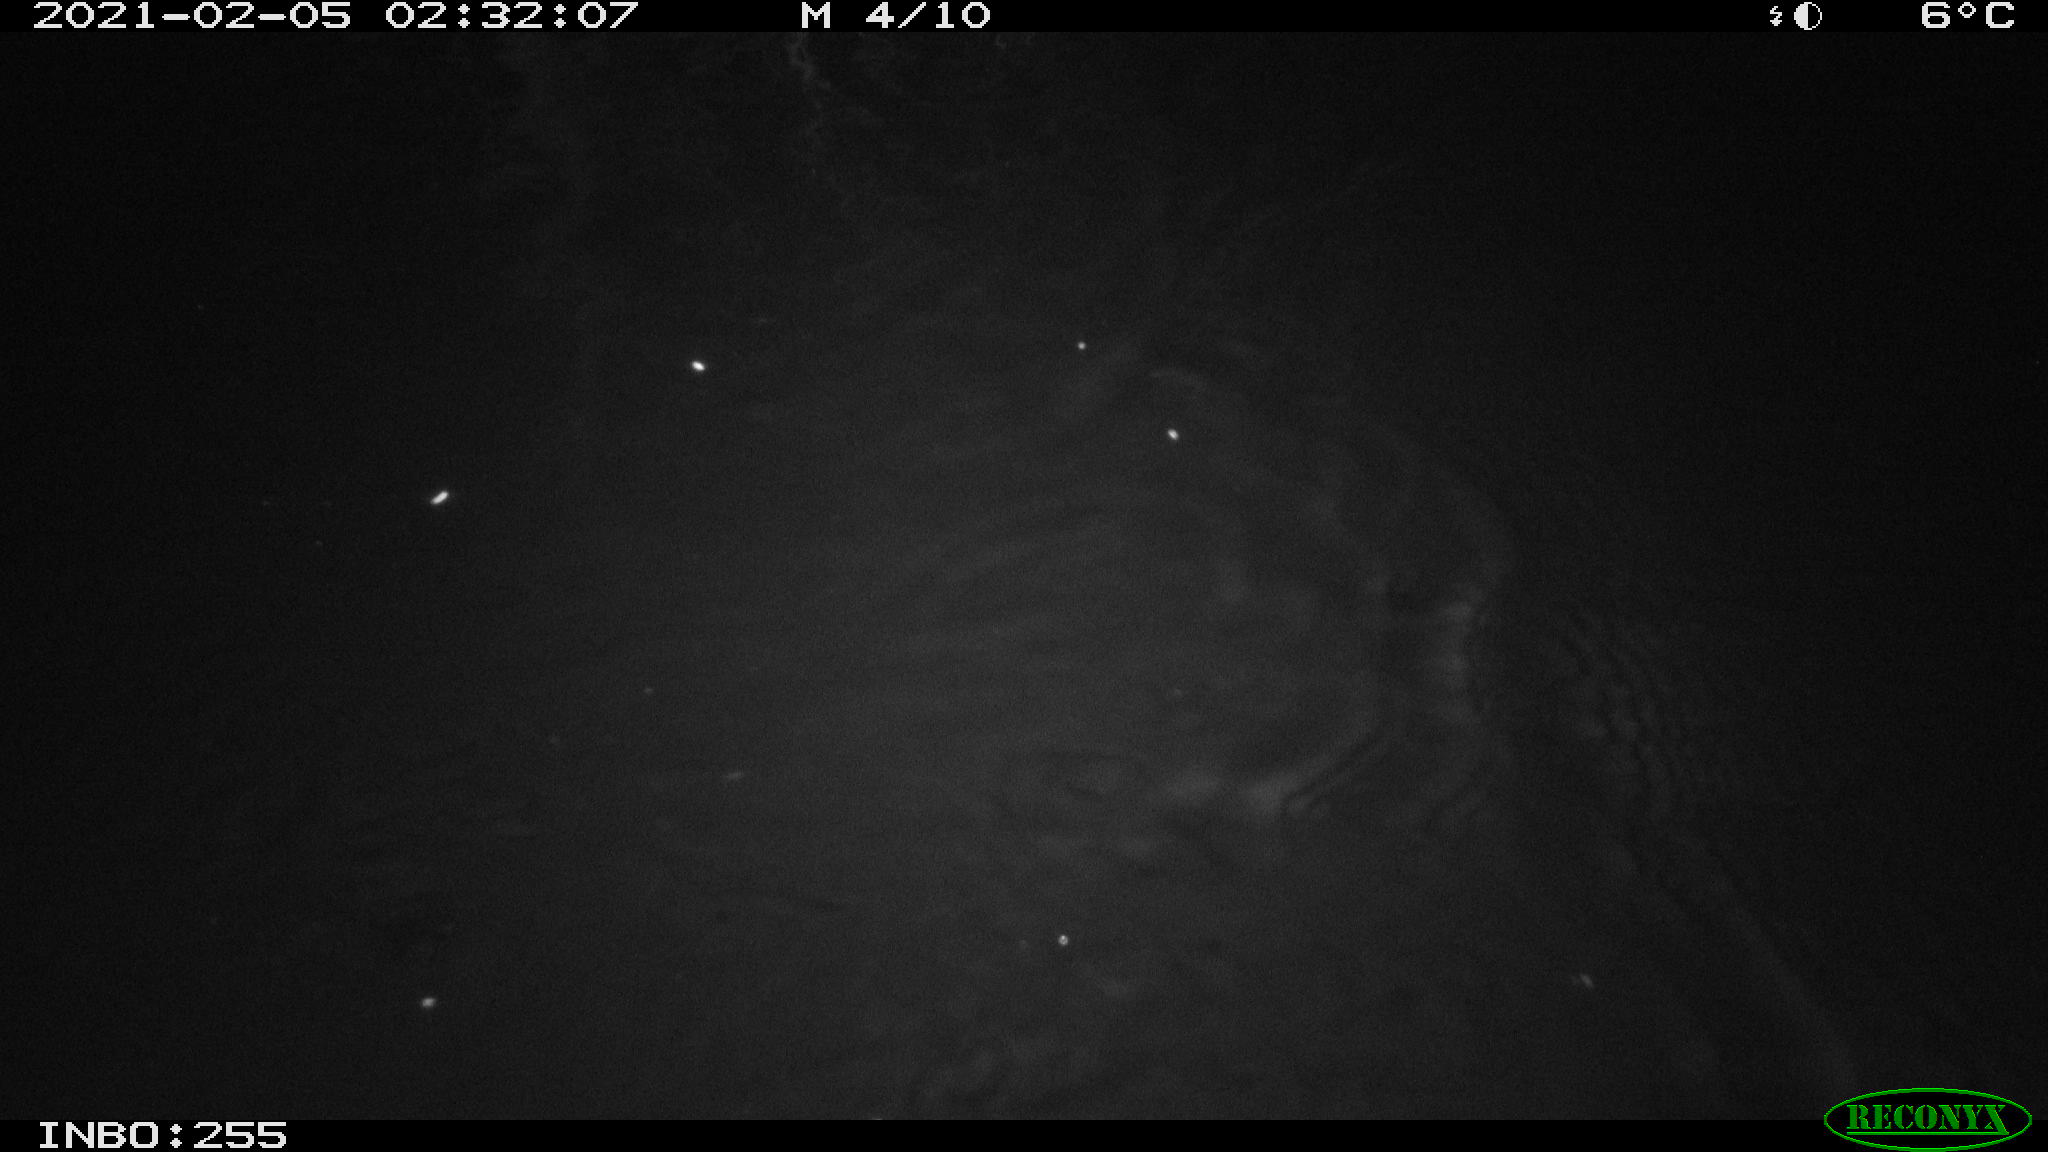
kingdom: Animalia
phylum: Chordata
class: Mammalia
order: Rodentia
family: Cricetidae
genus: Ondatra
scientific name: Ondatra zibethicus
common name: Muskrat
